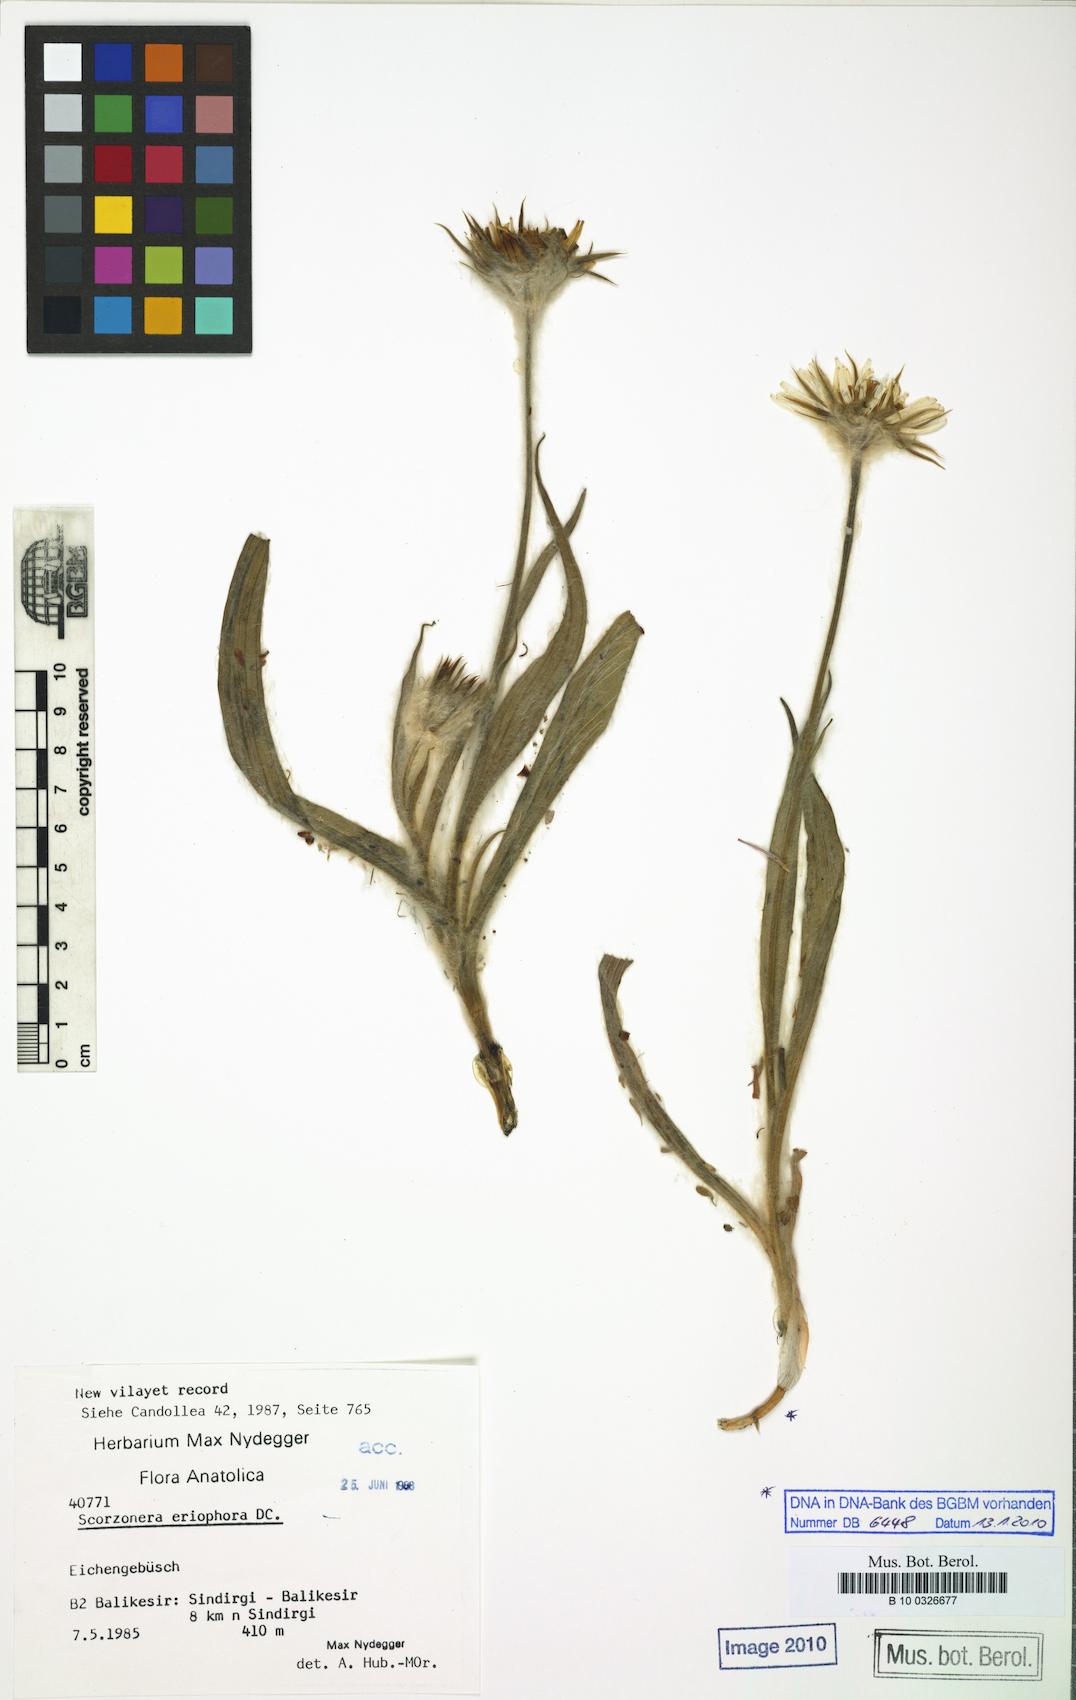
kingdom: Plantae
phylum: Tracheophyta
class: Magnoliopsida
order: Asterales
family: Asteraceae
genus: Bocquetia
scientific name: Bocquetia eriophora
